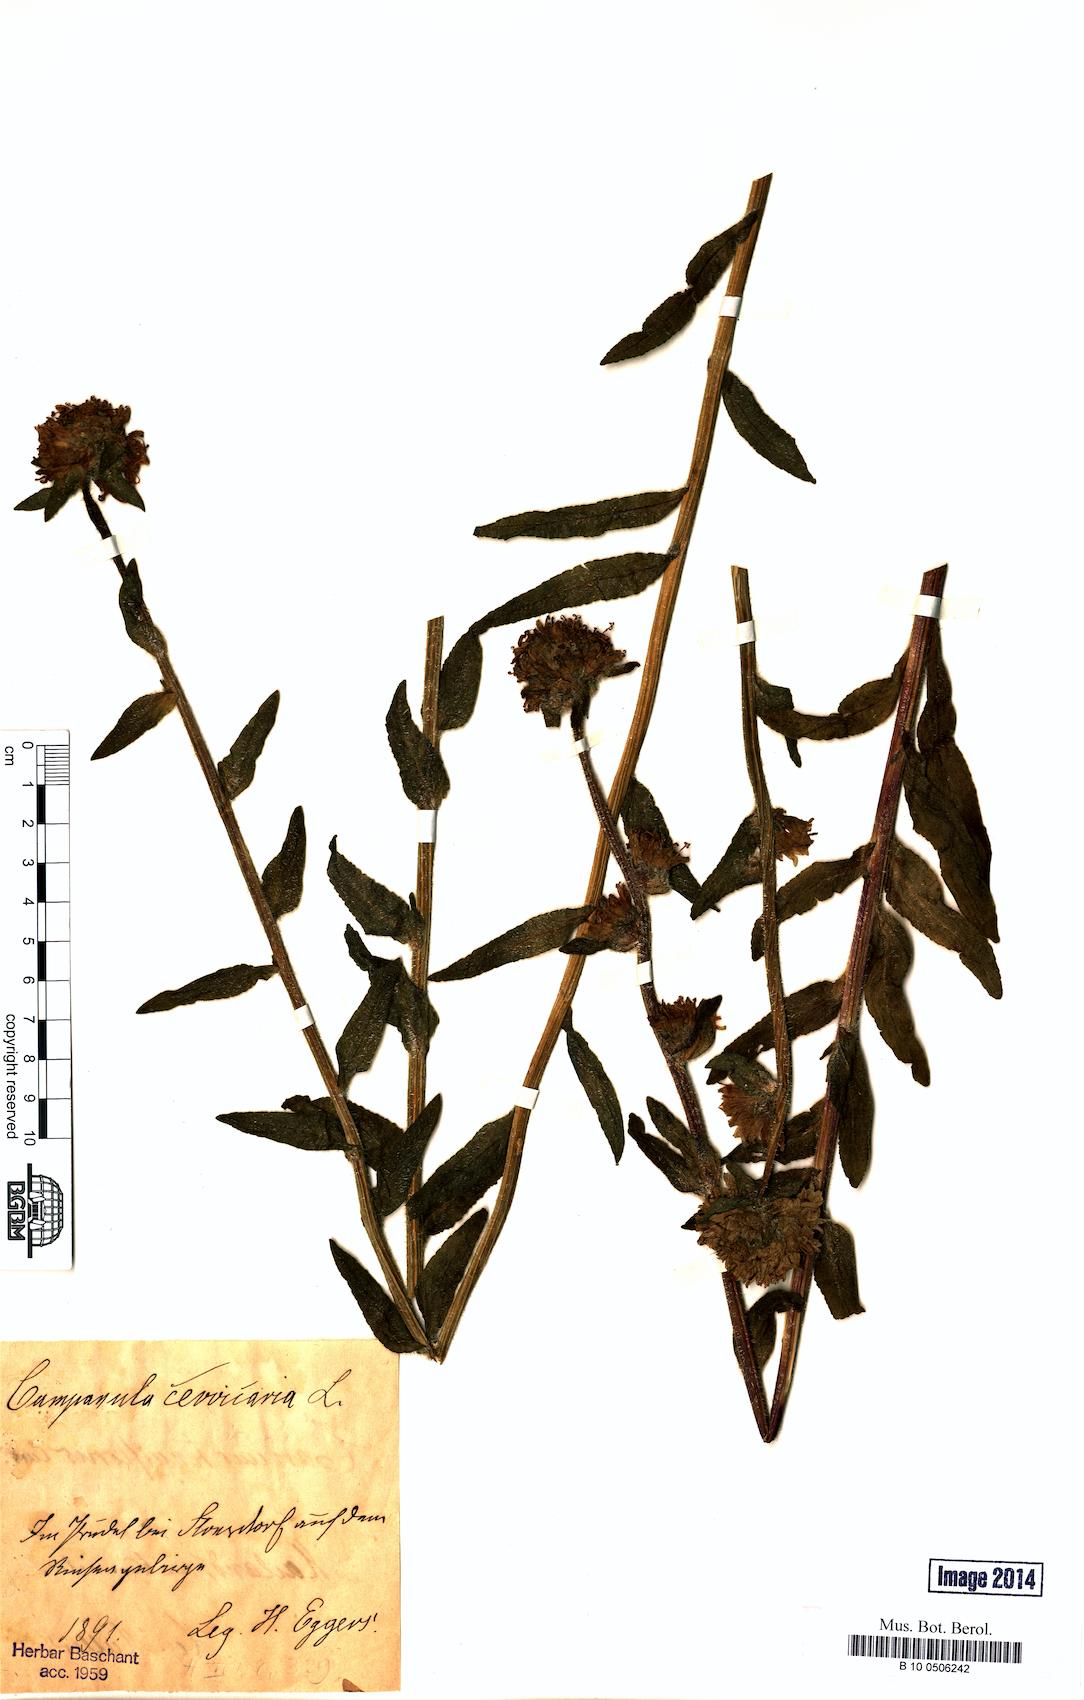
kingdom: Plantae
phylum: Tracheophyta
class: Magnoliopsida
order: Asterales
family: Campanulaceae
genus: Campanula
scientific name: Campanula cervicaria
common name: Bristly bellflower
